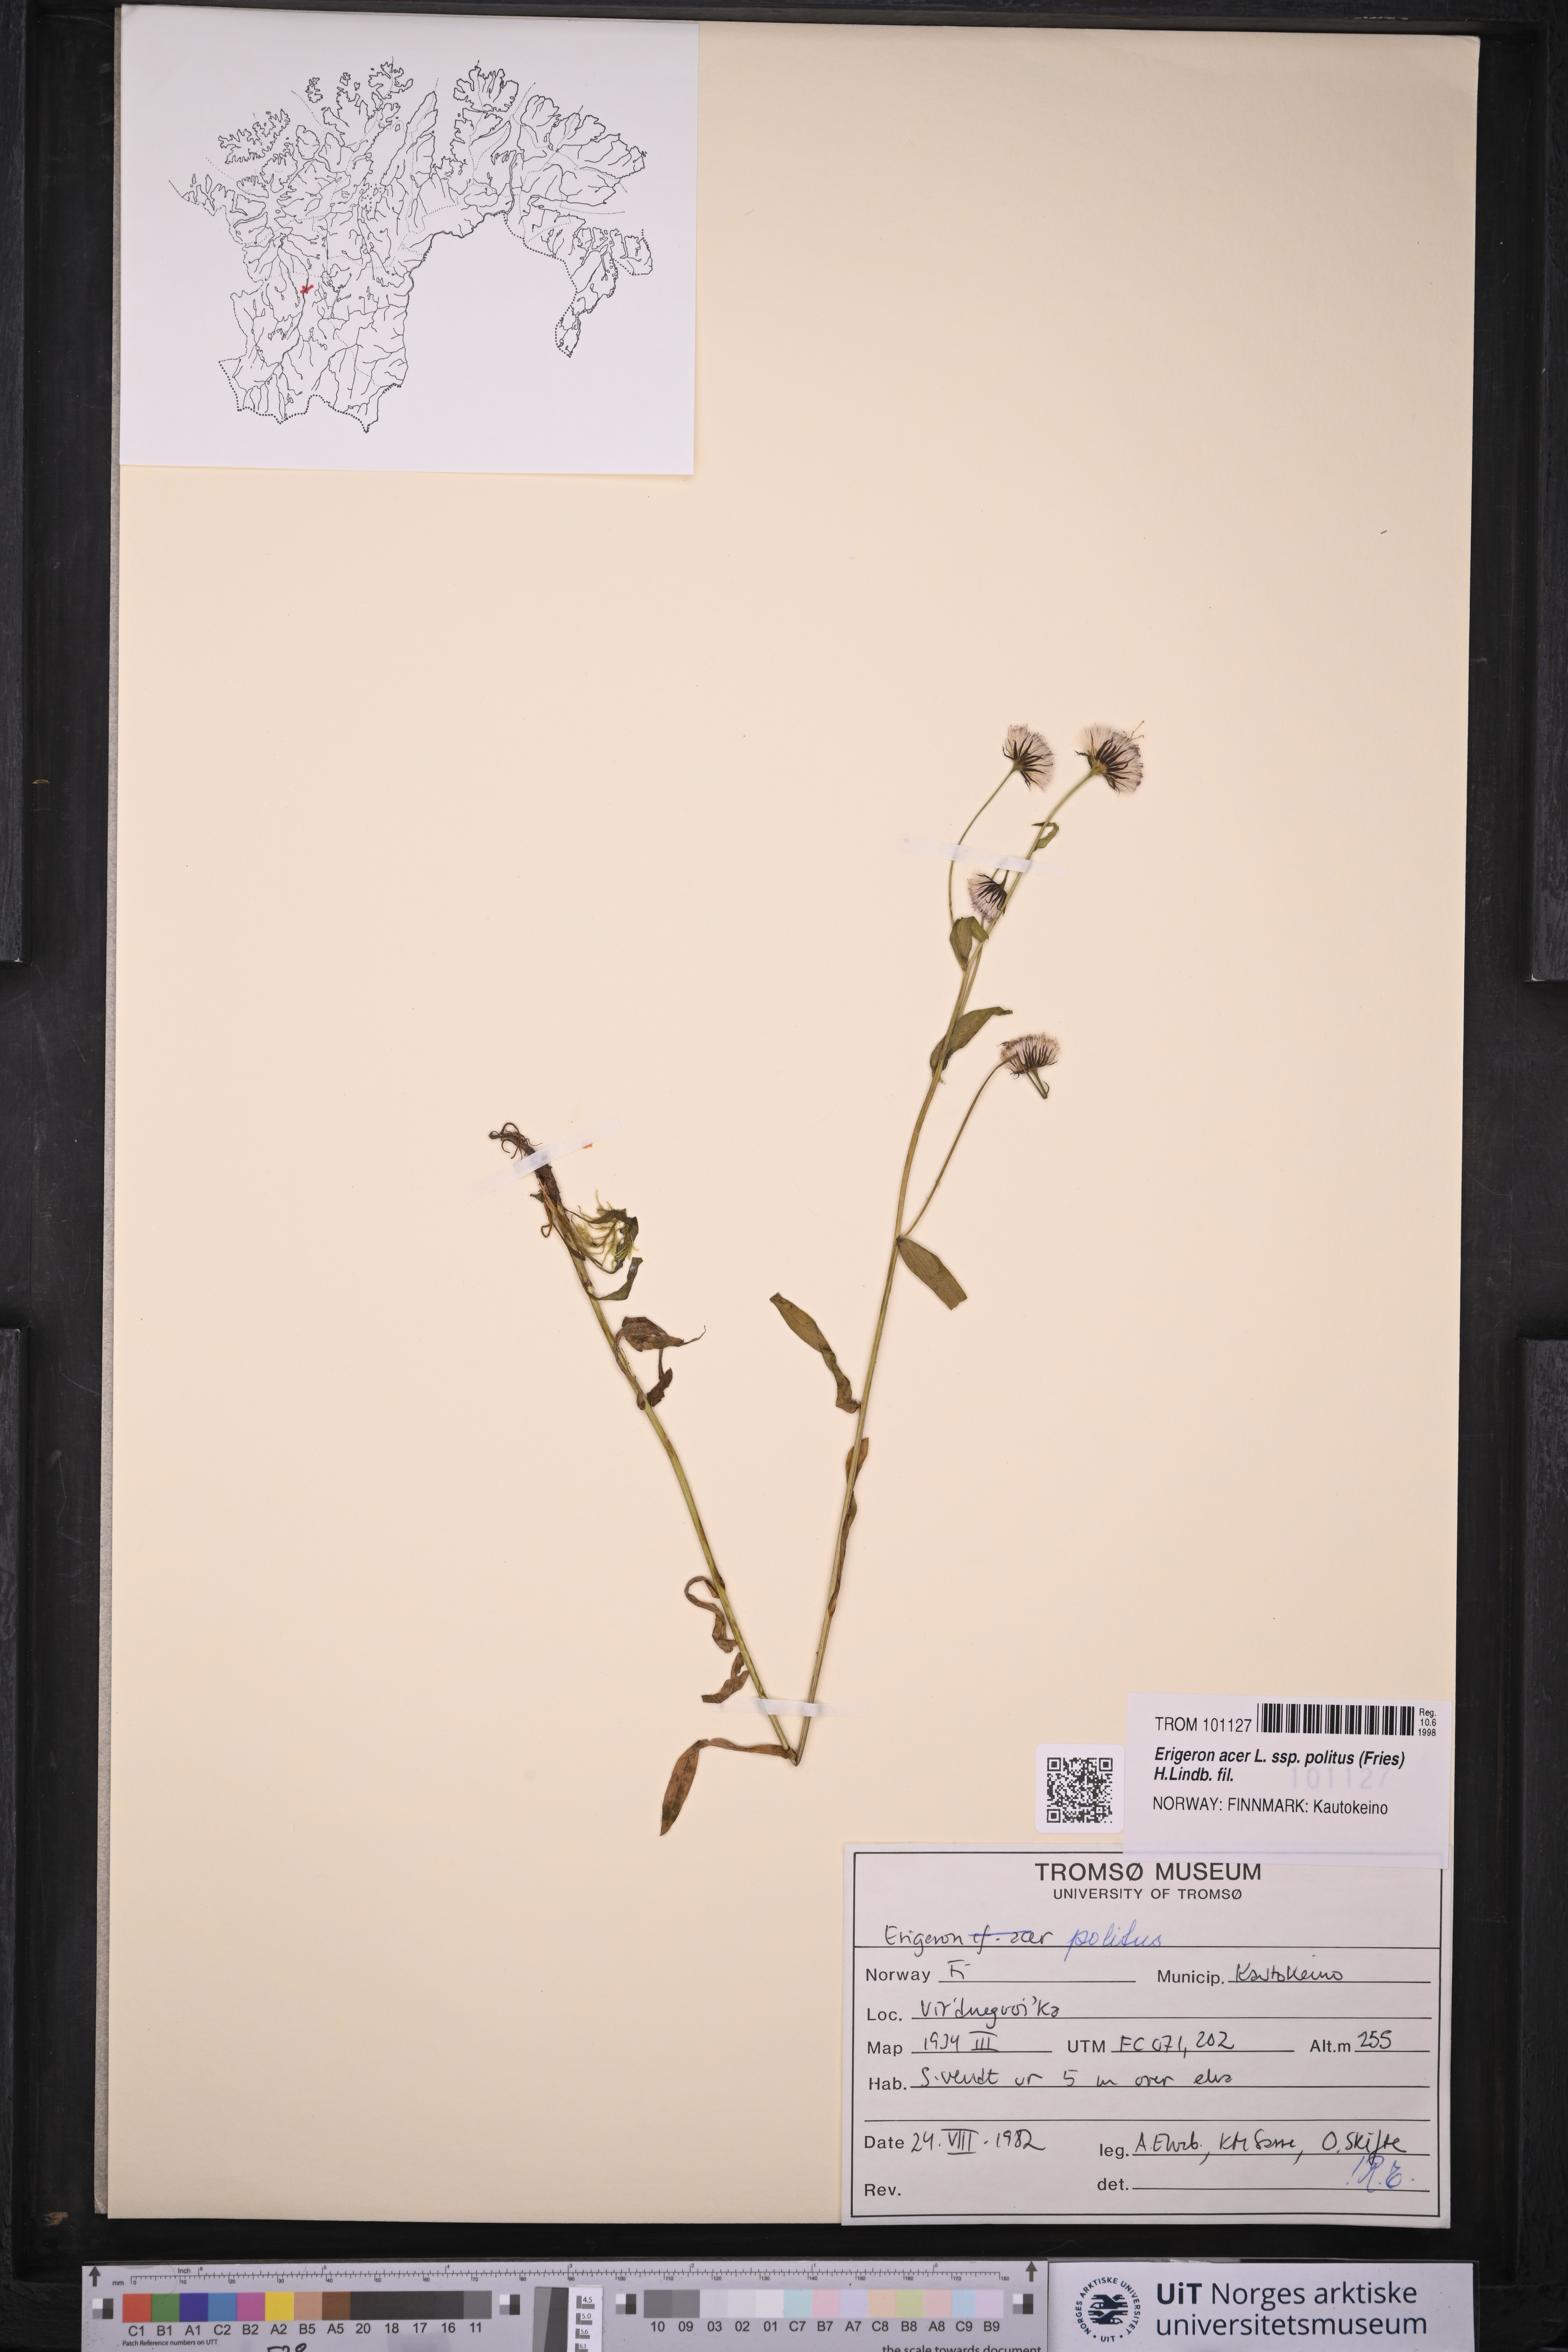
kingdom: Plantae
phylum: Tracheophyta
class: Magnoliopsida
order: Asterales
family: Asteraceae
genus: Erigeron
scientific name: Erigeron politus
